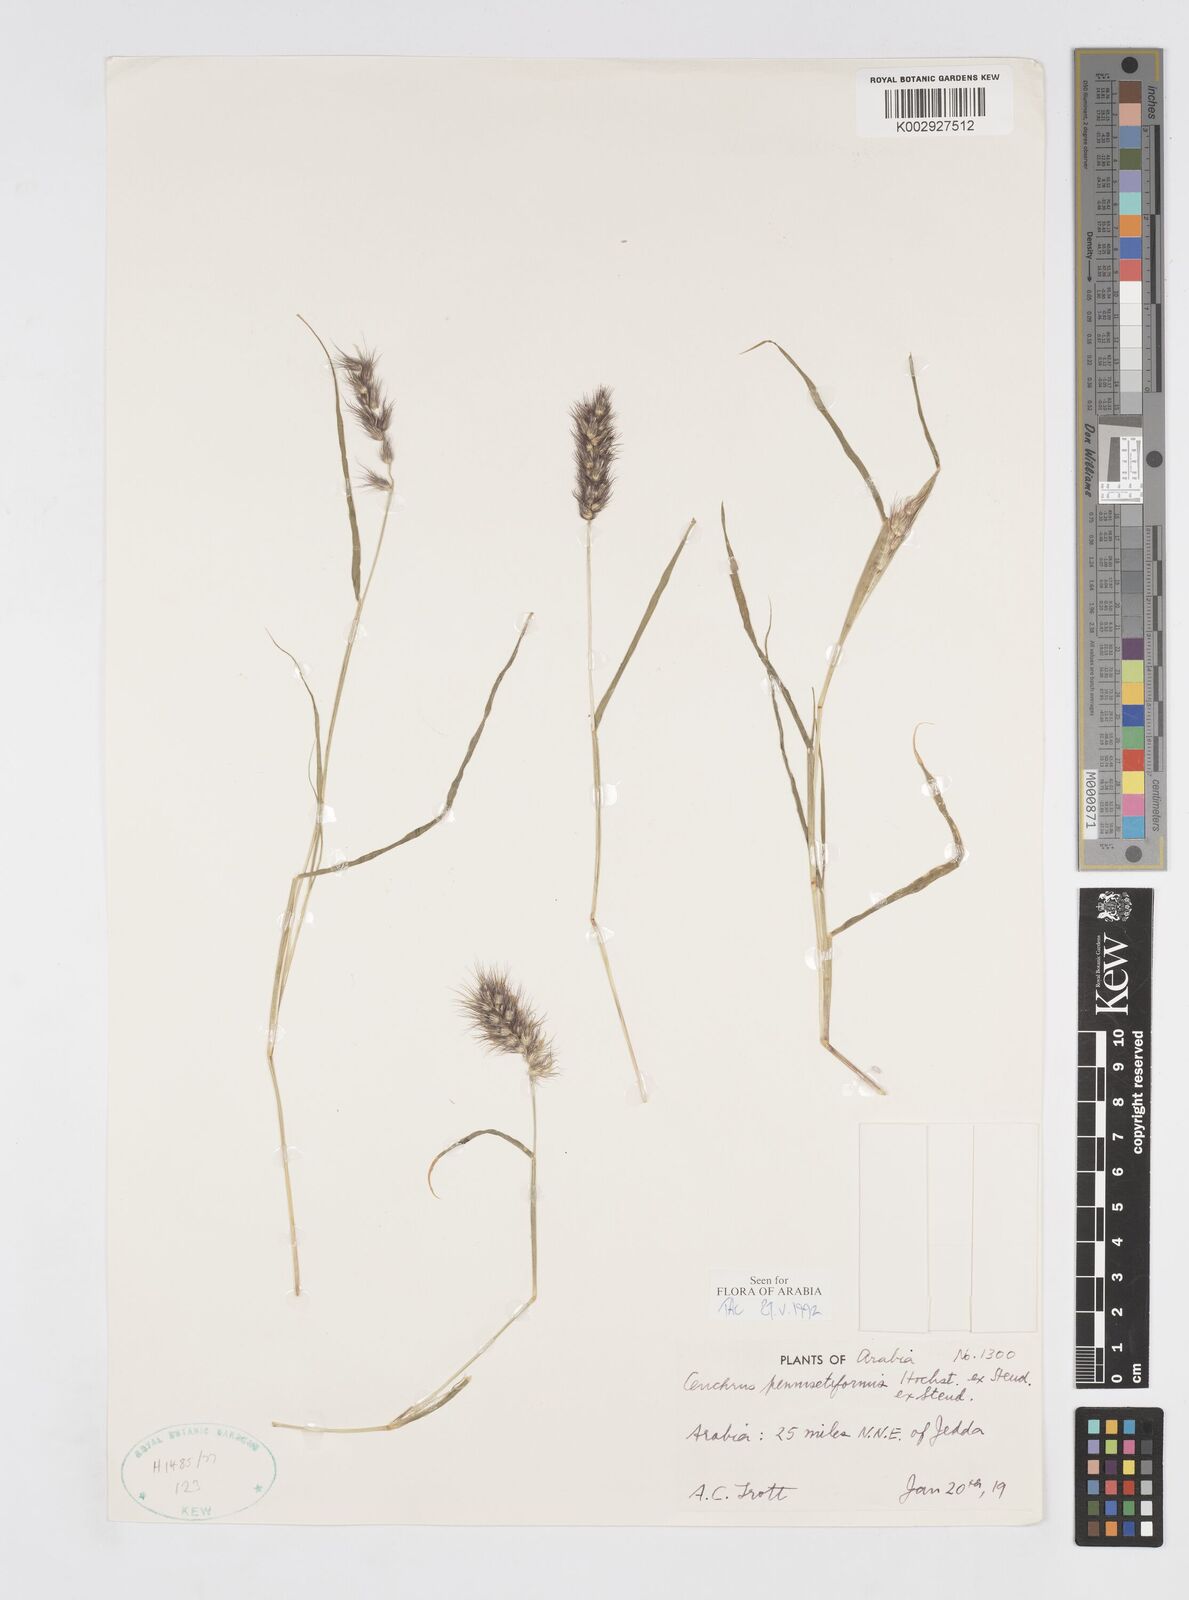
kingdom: Plantae
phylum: Tracheophyta
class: Liliopsida
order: Poales
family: Poaceae
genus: Cenchrus
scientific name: Cenchrus pennisetiformis
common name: Cloncurry
